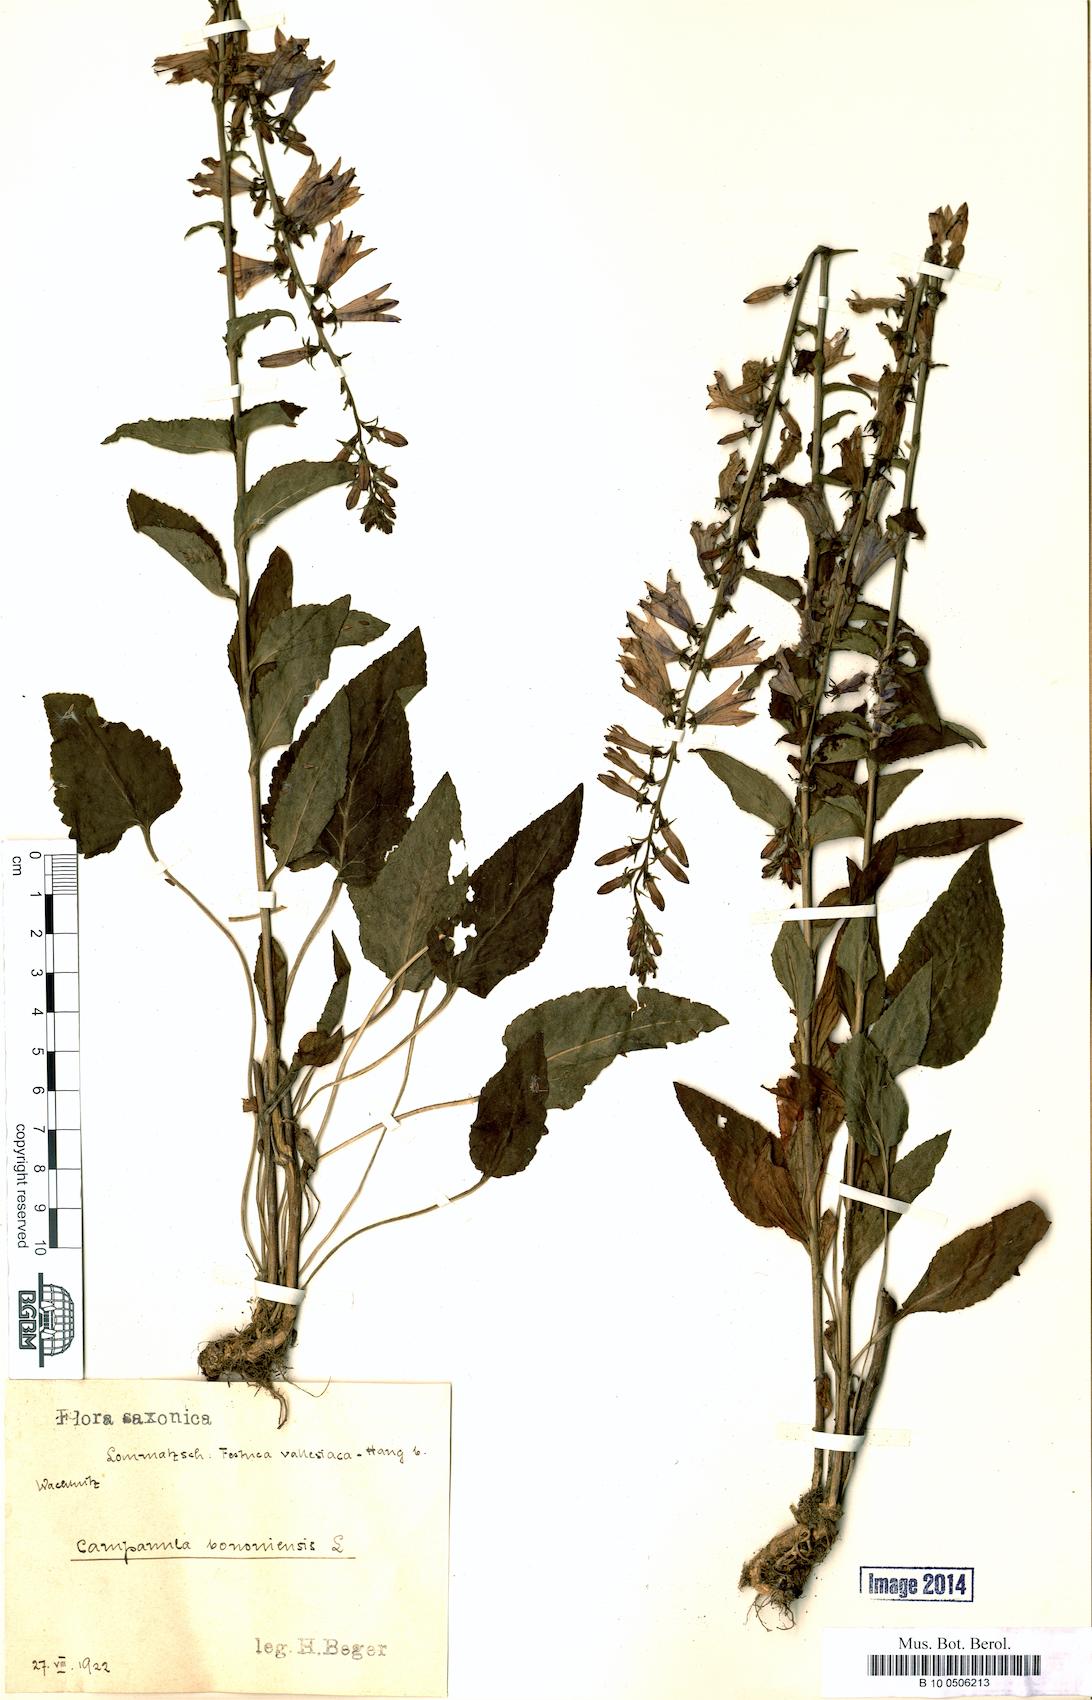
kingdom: Plantae
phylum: Tracheophyta
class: Magnoliopsida
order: Asterales
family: Campanulaceae
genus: Campanula
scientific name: Campanula bononiensis
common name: Pale bellflower
